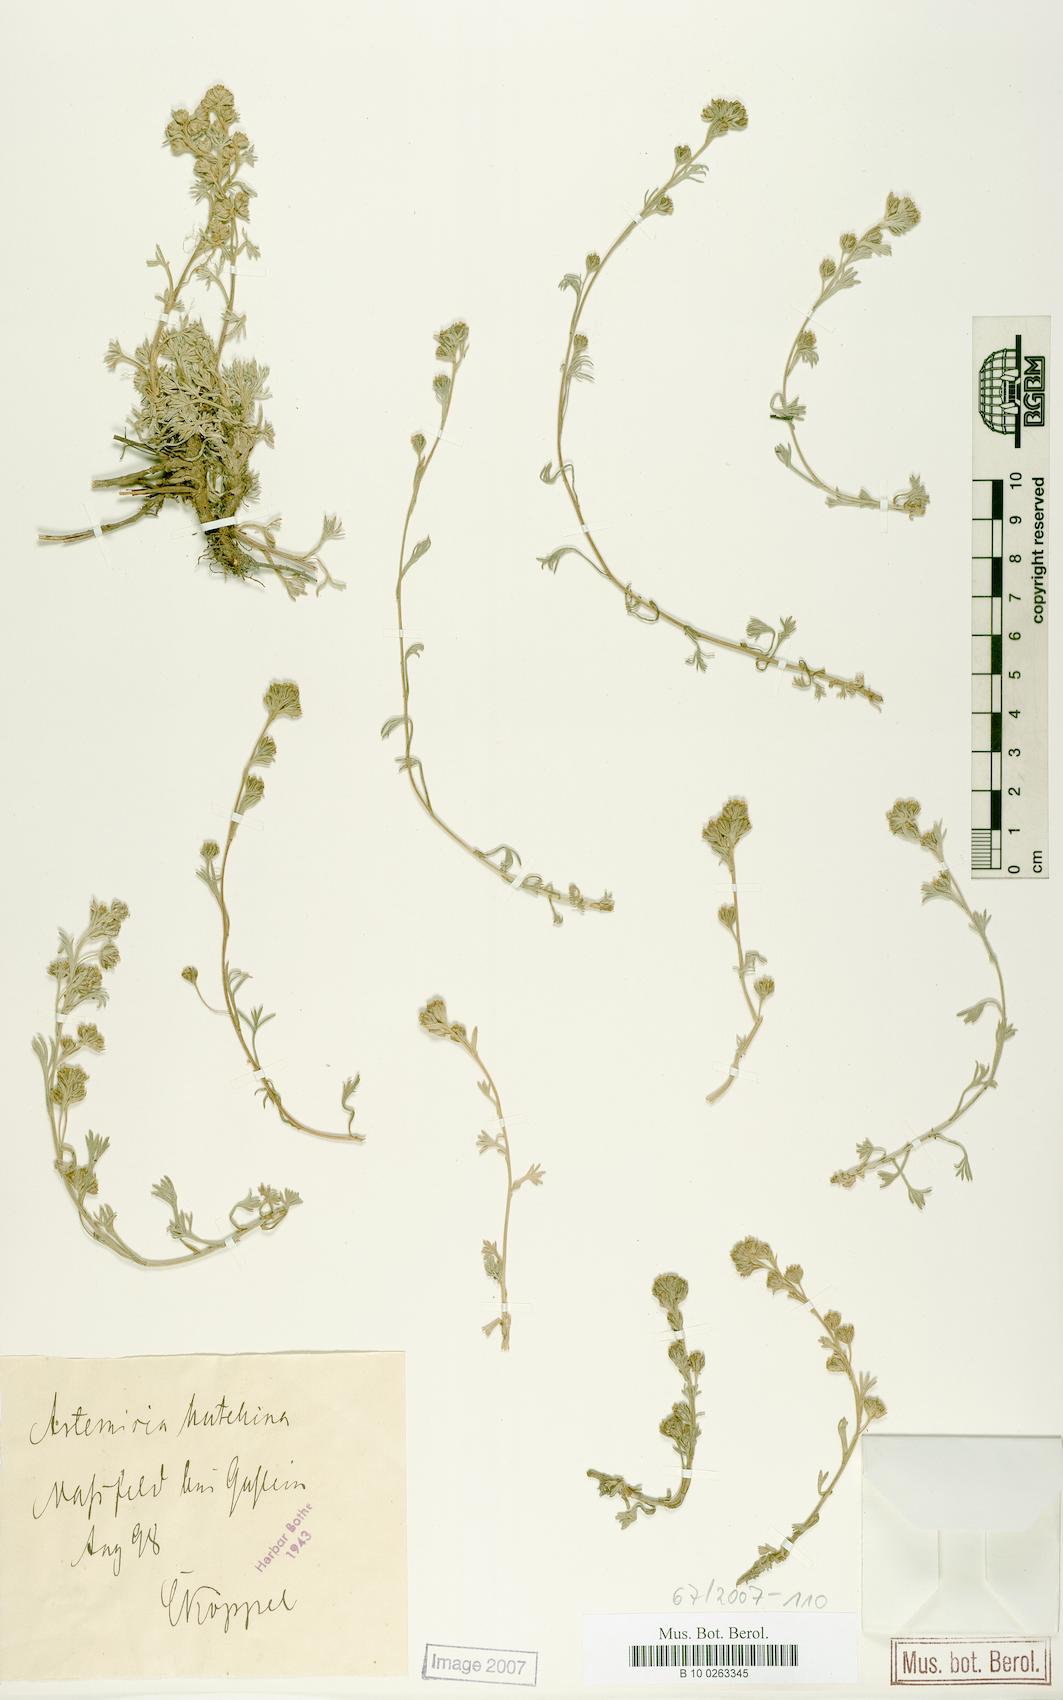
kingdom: Plantae
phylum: Tracheophyta
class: Magnoliopsida
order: Asterales
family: Asteraceae
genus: Artemisia
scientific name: Artemisia mutellina
